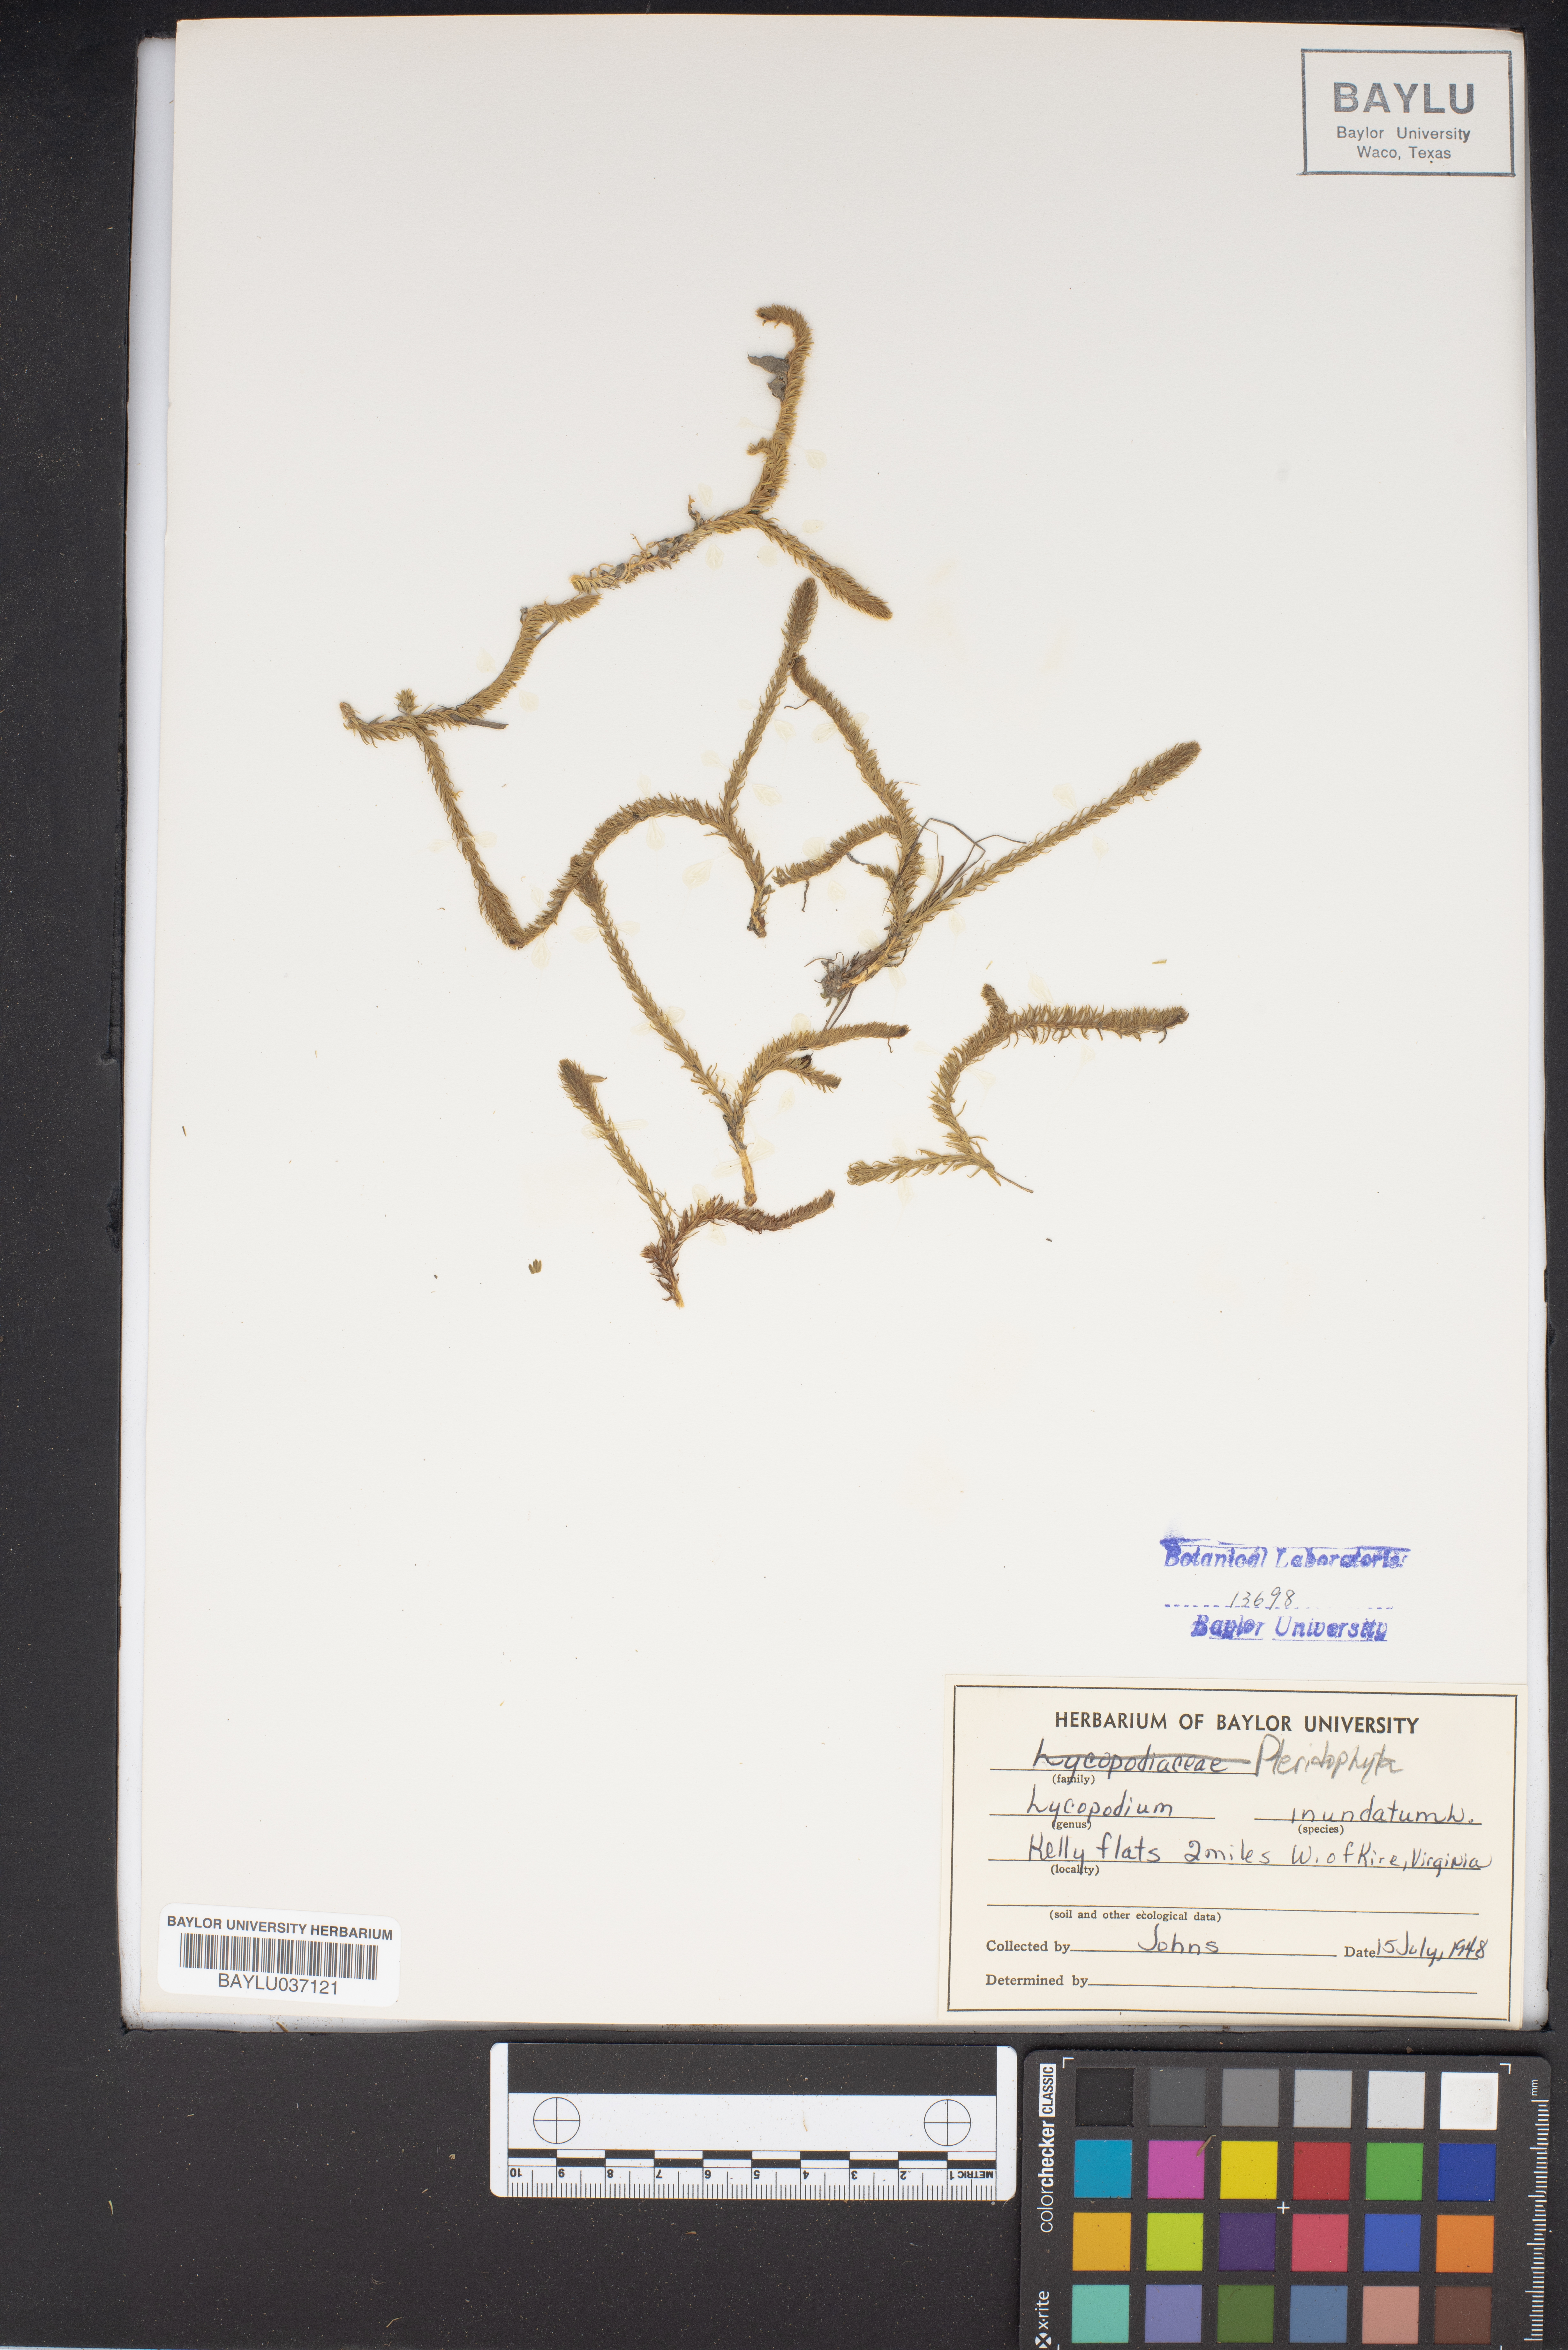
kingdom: Plantae
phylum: Tracheophyta
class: Lycopodiopsida
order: Lycopodiales
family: Lycopodiaceae
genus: Lycopodiella
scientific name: Lycopodiella inundata
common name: Marsh clubmoss
